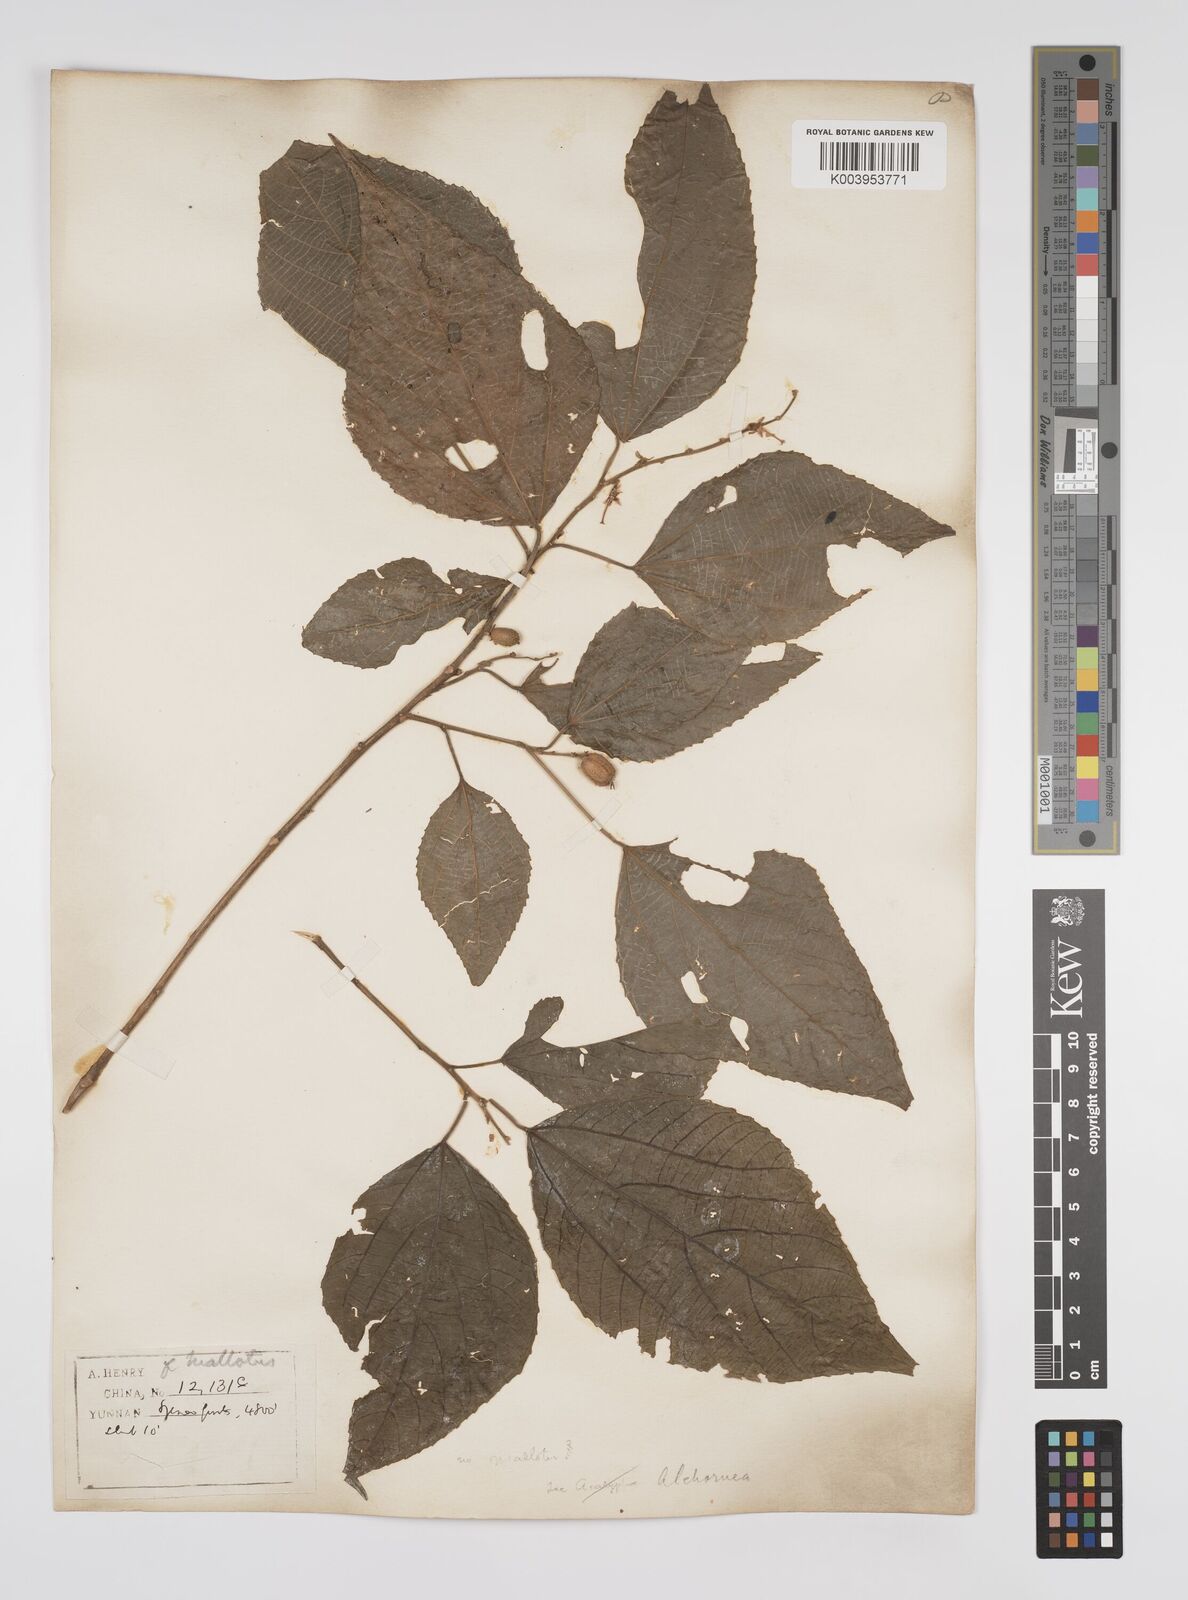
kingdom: Plantae
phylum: Tracheophyta
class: Magnoliopsida
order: Malpighiales
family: Euphorbiaceae
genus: Alchornea
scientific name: Alchornea tiliifolia
